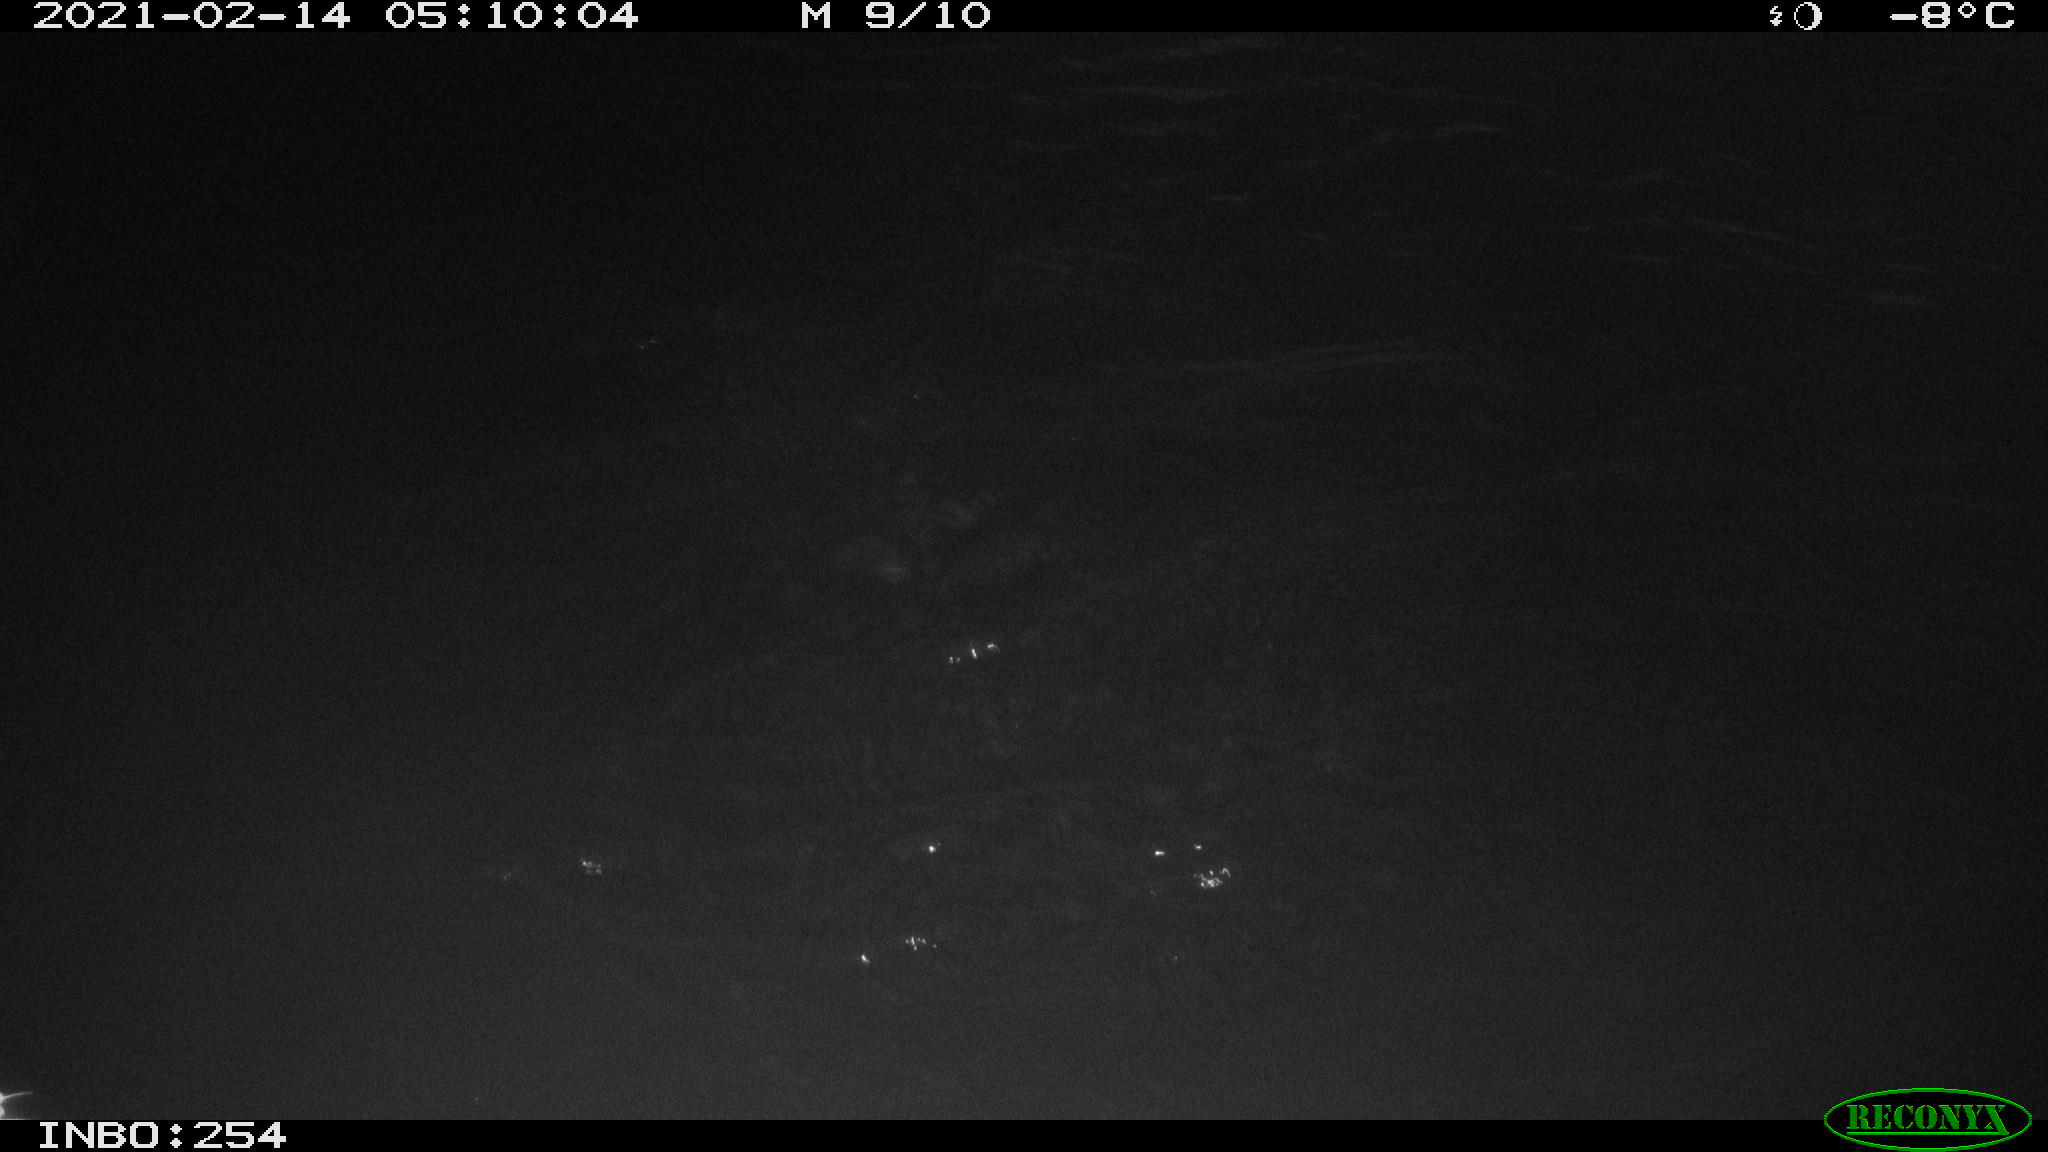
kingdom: Animalia
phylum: Chordata
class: Aves
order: Gruiformes
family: Rallidae
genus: Gallinula
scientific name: Gallinula chloropus
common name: Common moorhen
